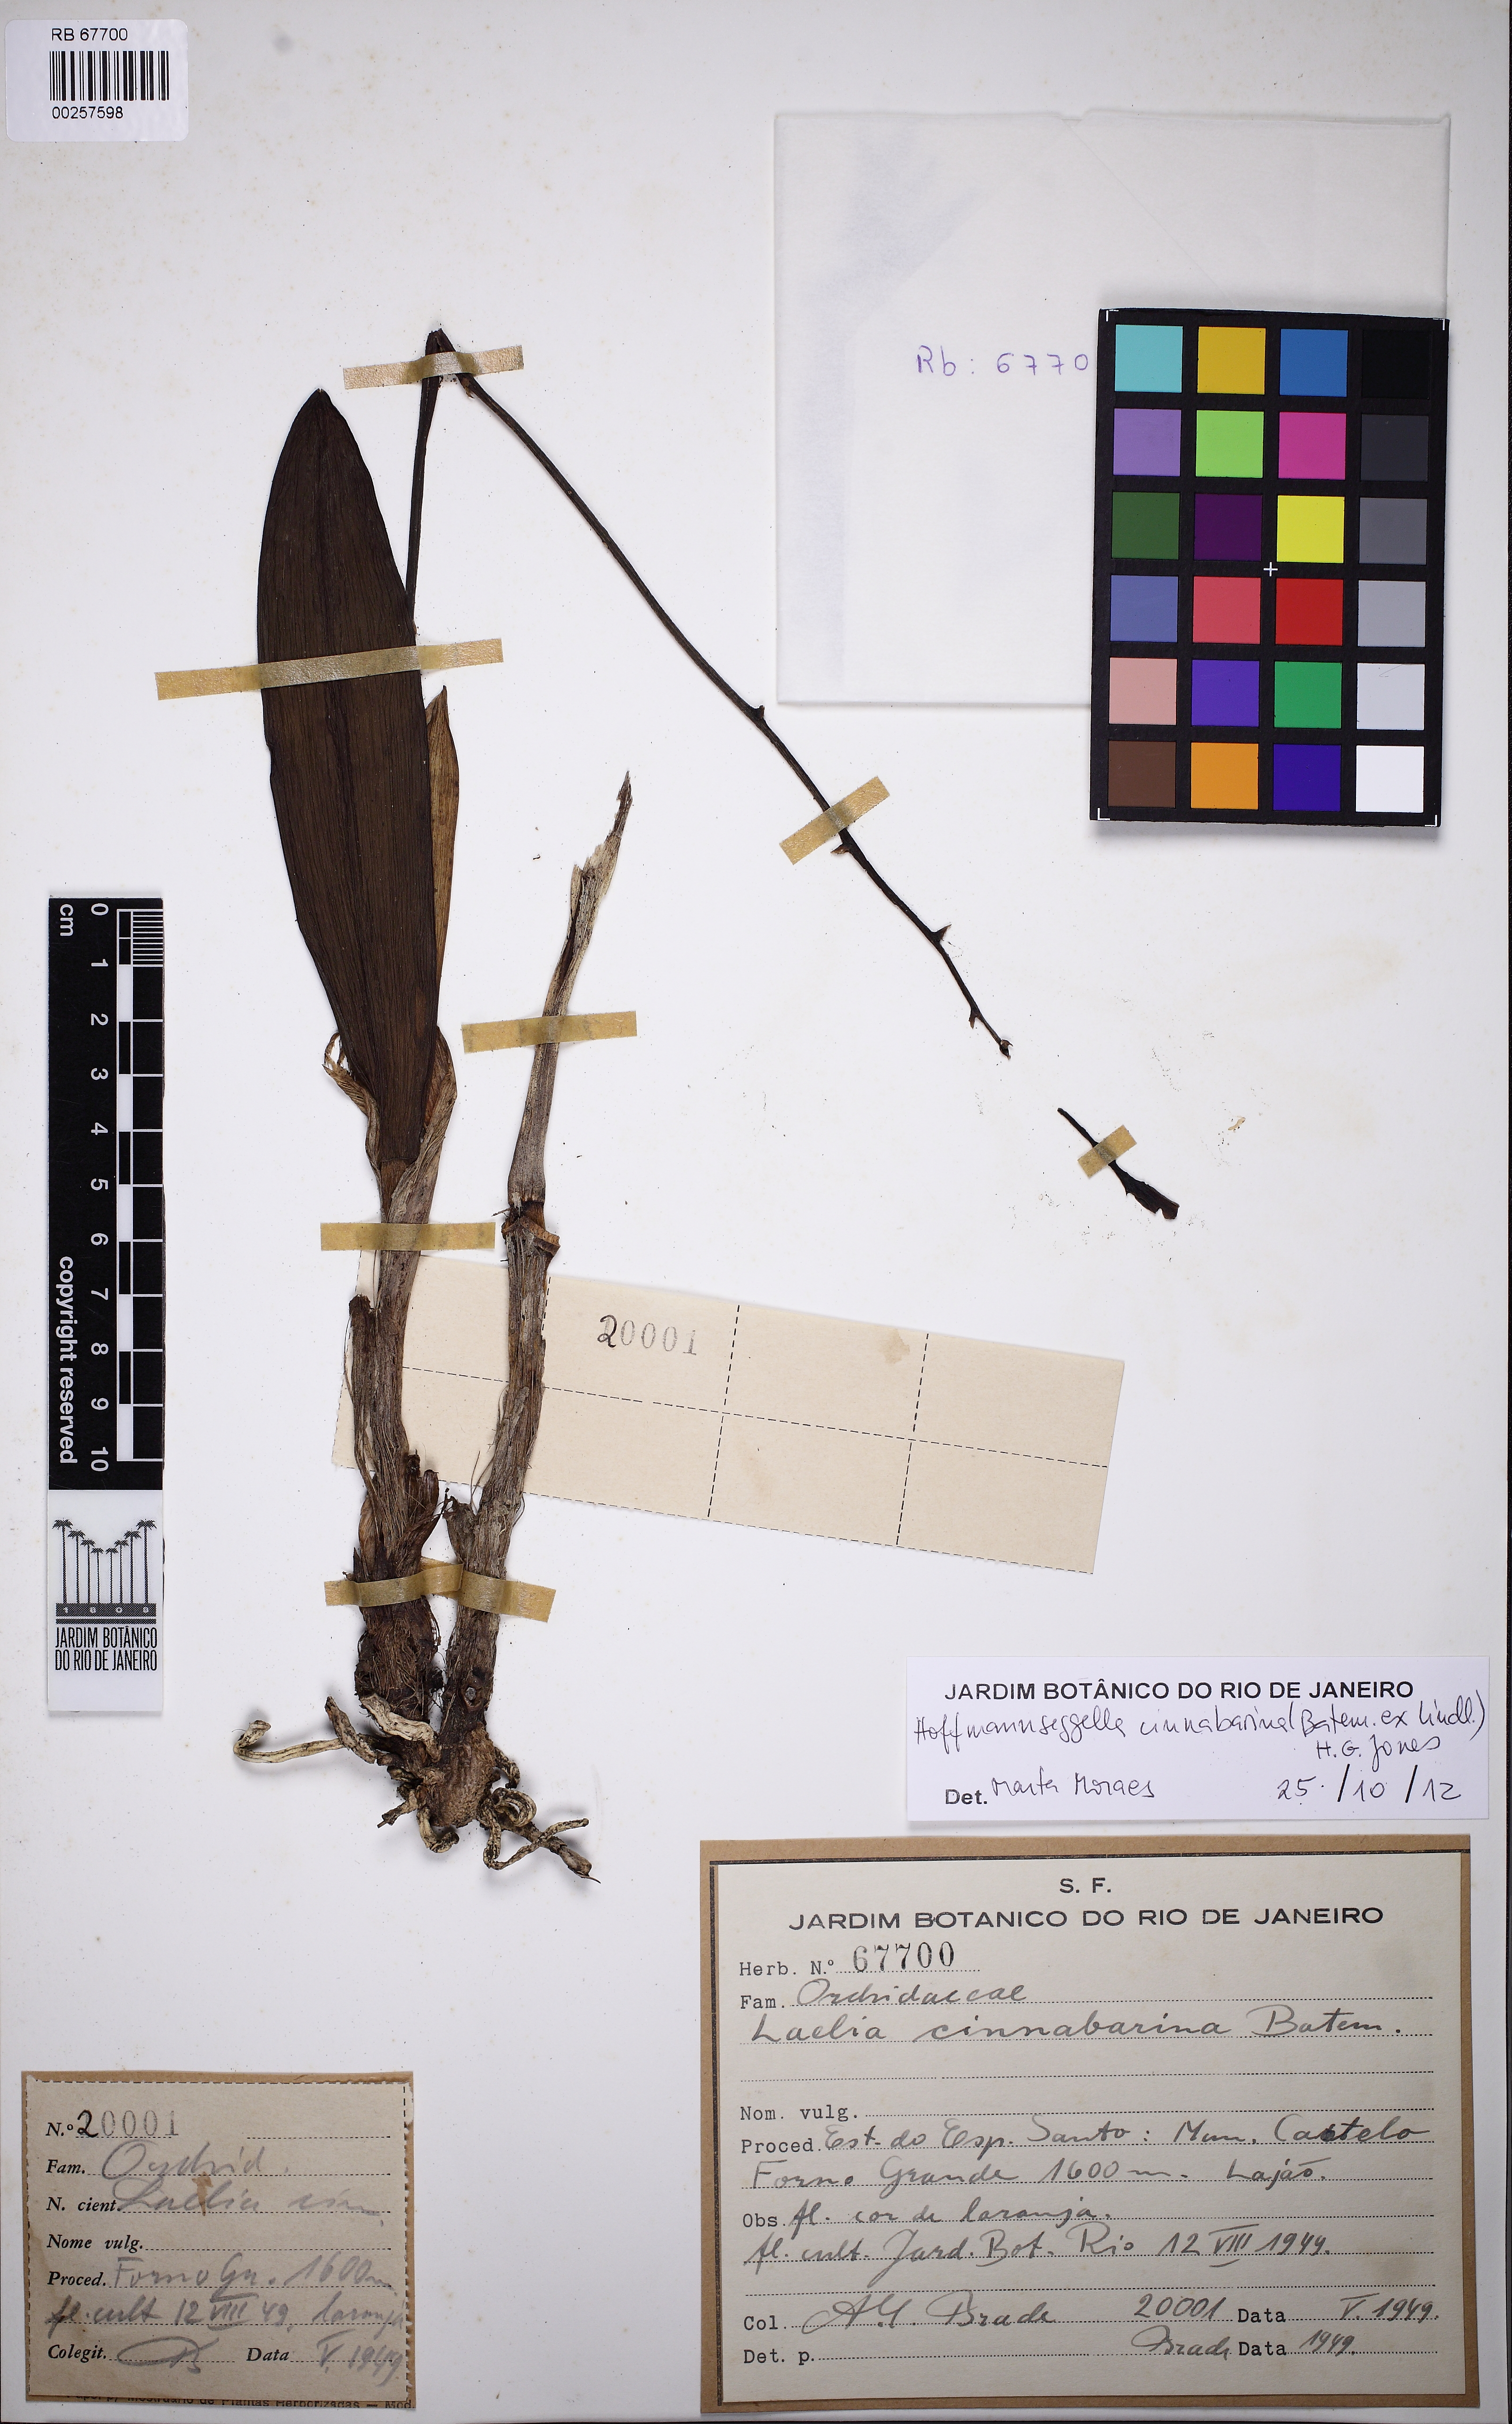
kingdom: Plantae
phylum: Tracheophyta
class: Liliopsida
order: Asparagales
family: Orchidaceae
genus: Cattleya
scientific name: Cattleya cinnabarina
